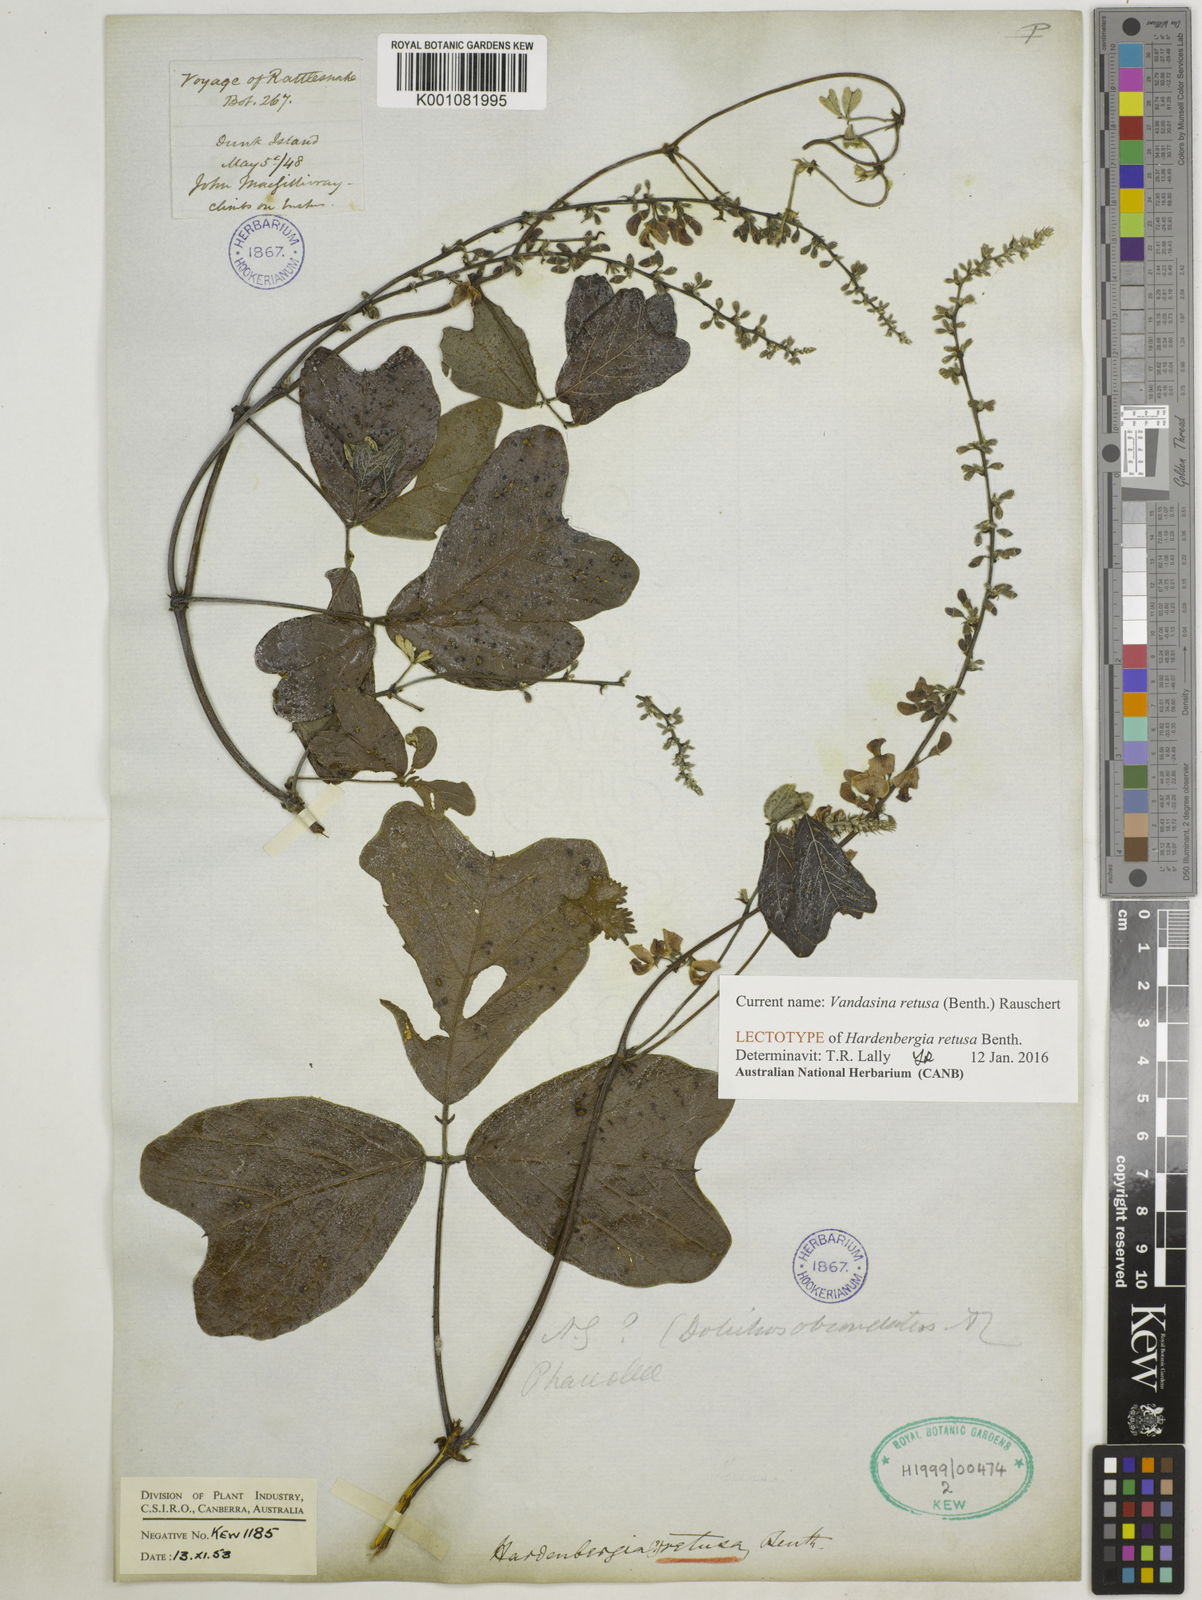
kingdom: Plantae
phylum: Tracheophyta
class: Magnoliopsida
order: Fabales
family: Fabaceae
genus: Vandasina
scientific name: Vandasina retusa
